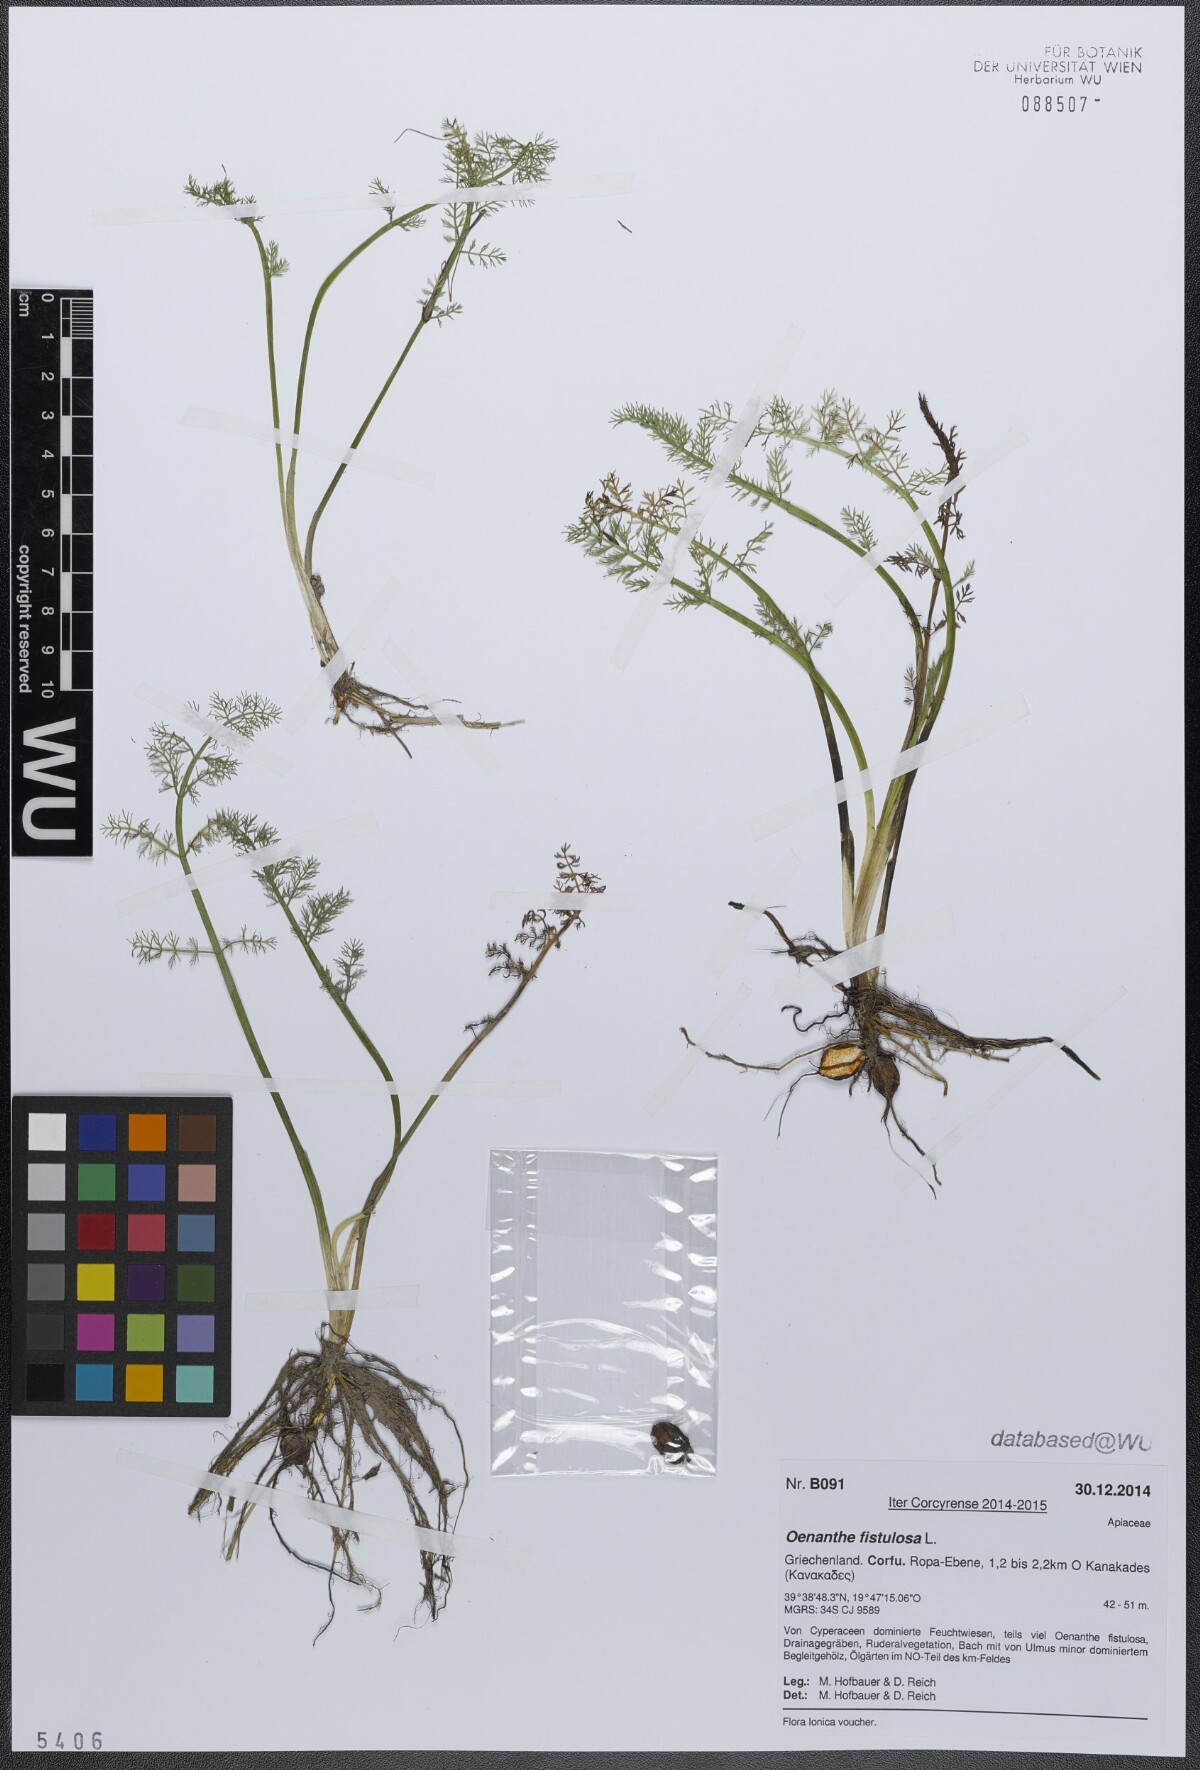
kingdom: Plantae
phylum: Tracheophyta
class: Magnoliopsida
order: Apiales
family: Apiaceae
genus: Oenanthe
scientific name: Oenanthe fistulosa
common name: Tubular water-dropwort
